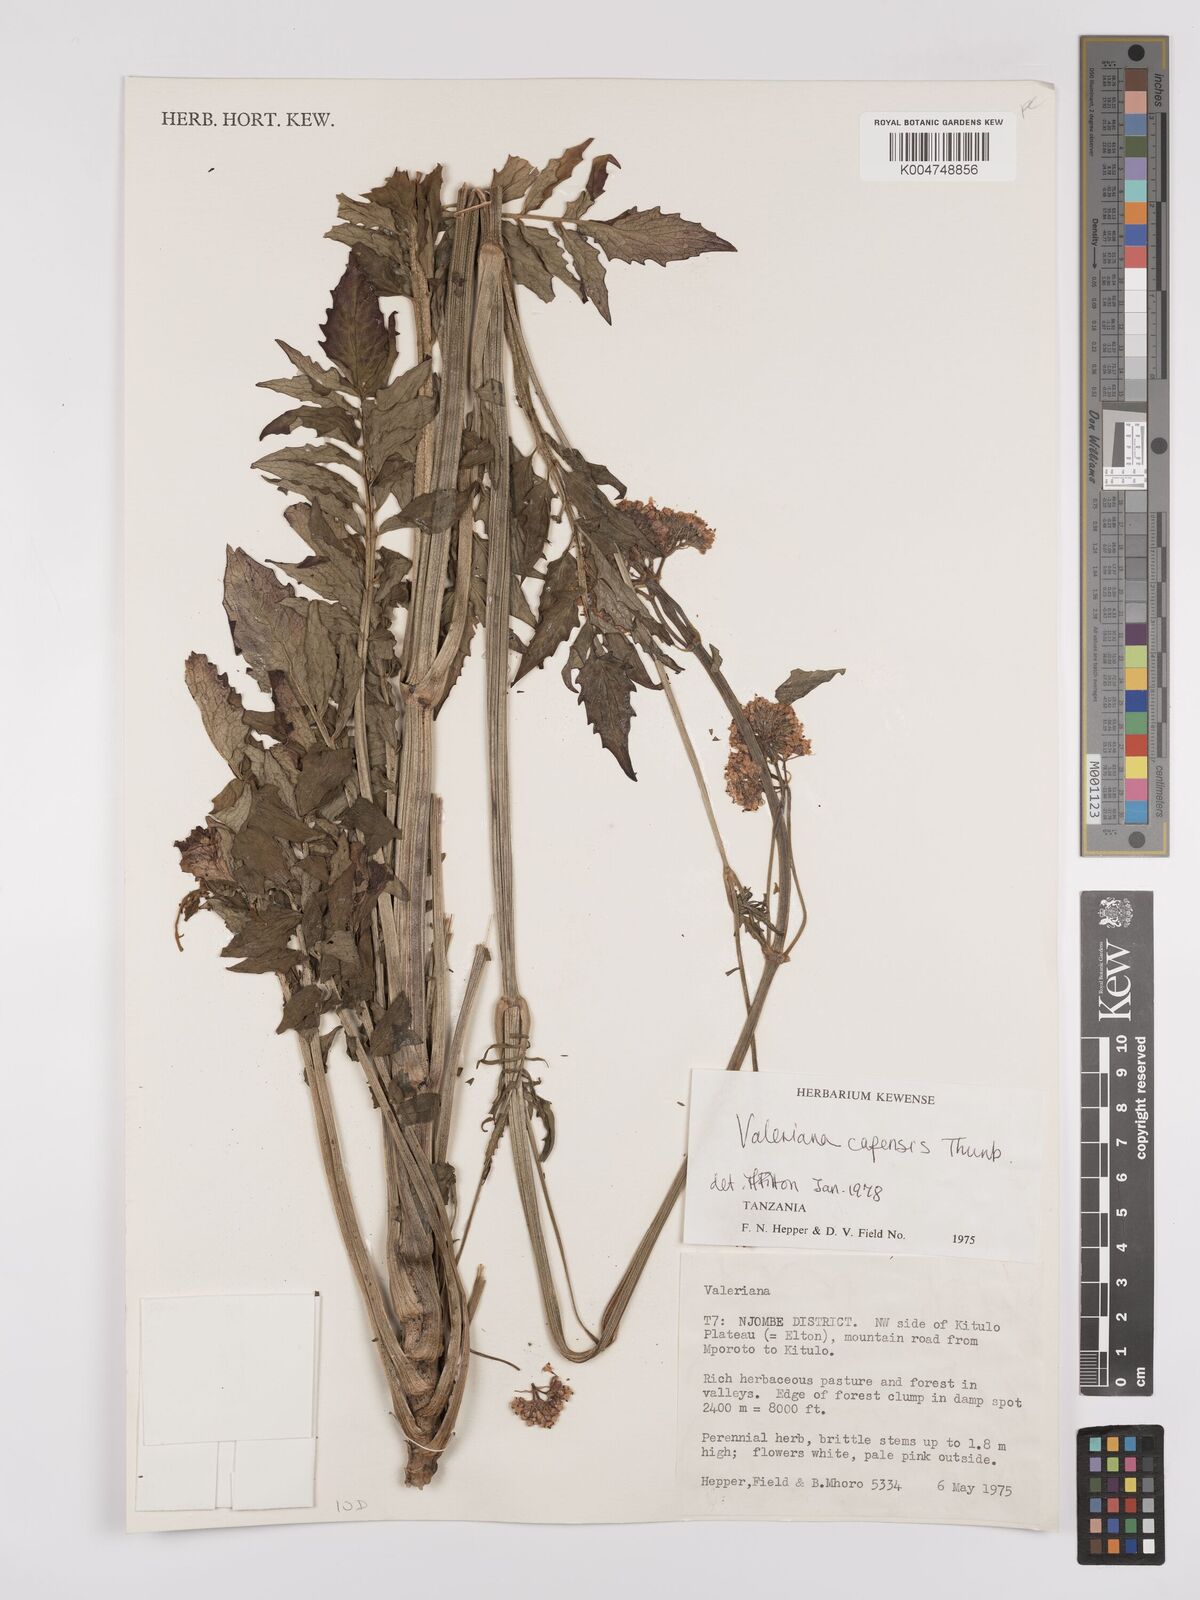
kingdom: Plantae
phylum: Tracheophyta
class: Magnoliopsida
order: Dipsacales
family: Caprifoliaceae
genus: Valeriana
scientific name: Valeriana capensis
